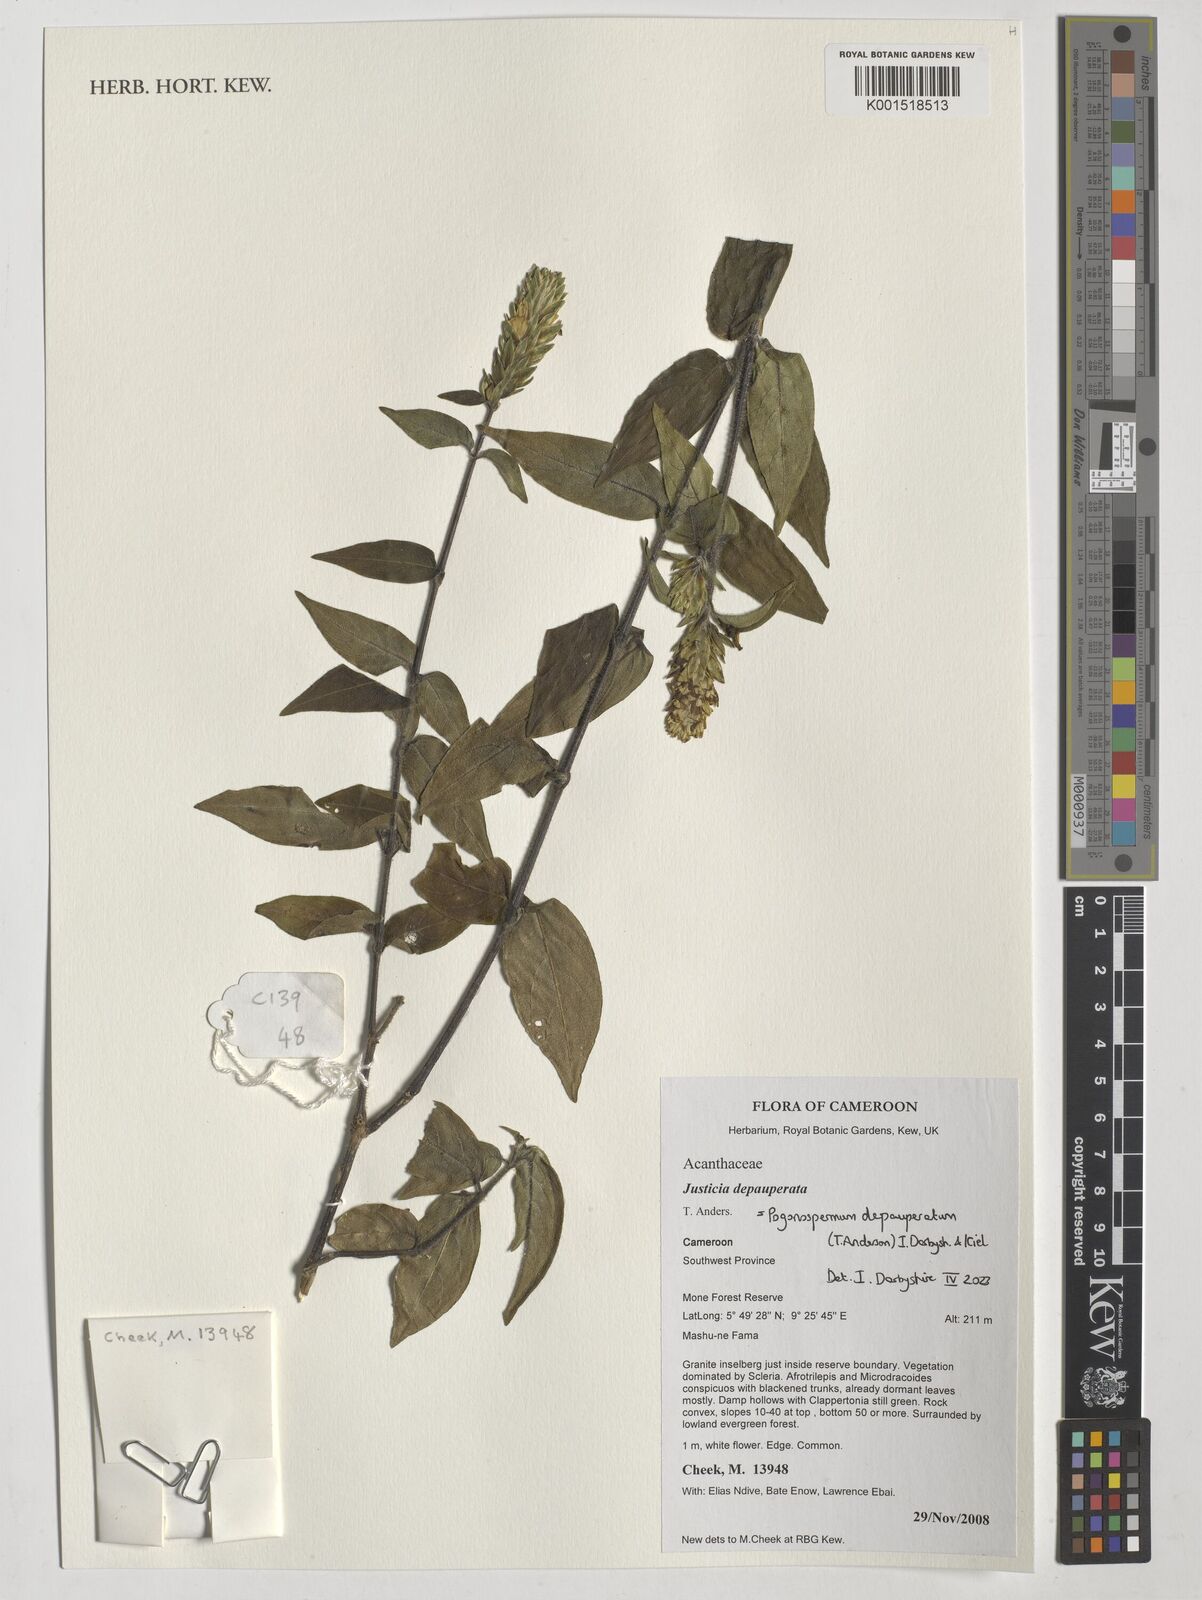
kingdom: Plantae
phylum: Tracheophyta
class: Magnoliopsida
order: Lamiales
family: Acanthaceae
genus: Pogonospermum
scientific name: Pogonospermum
